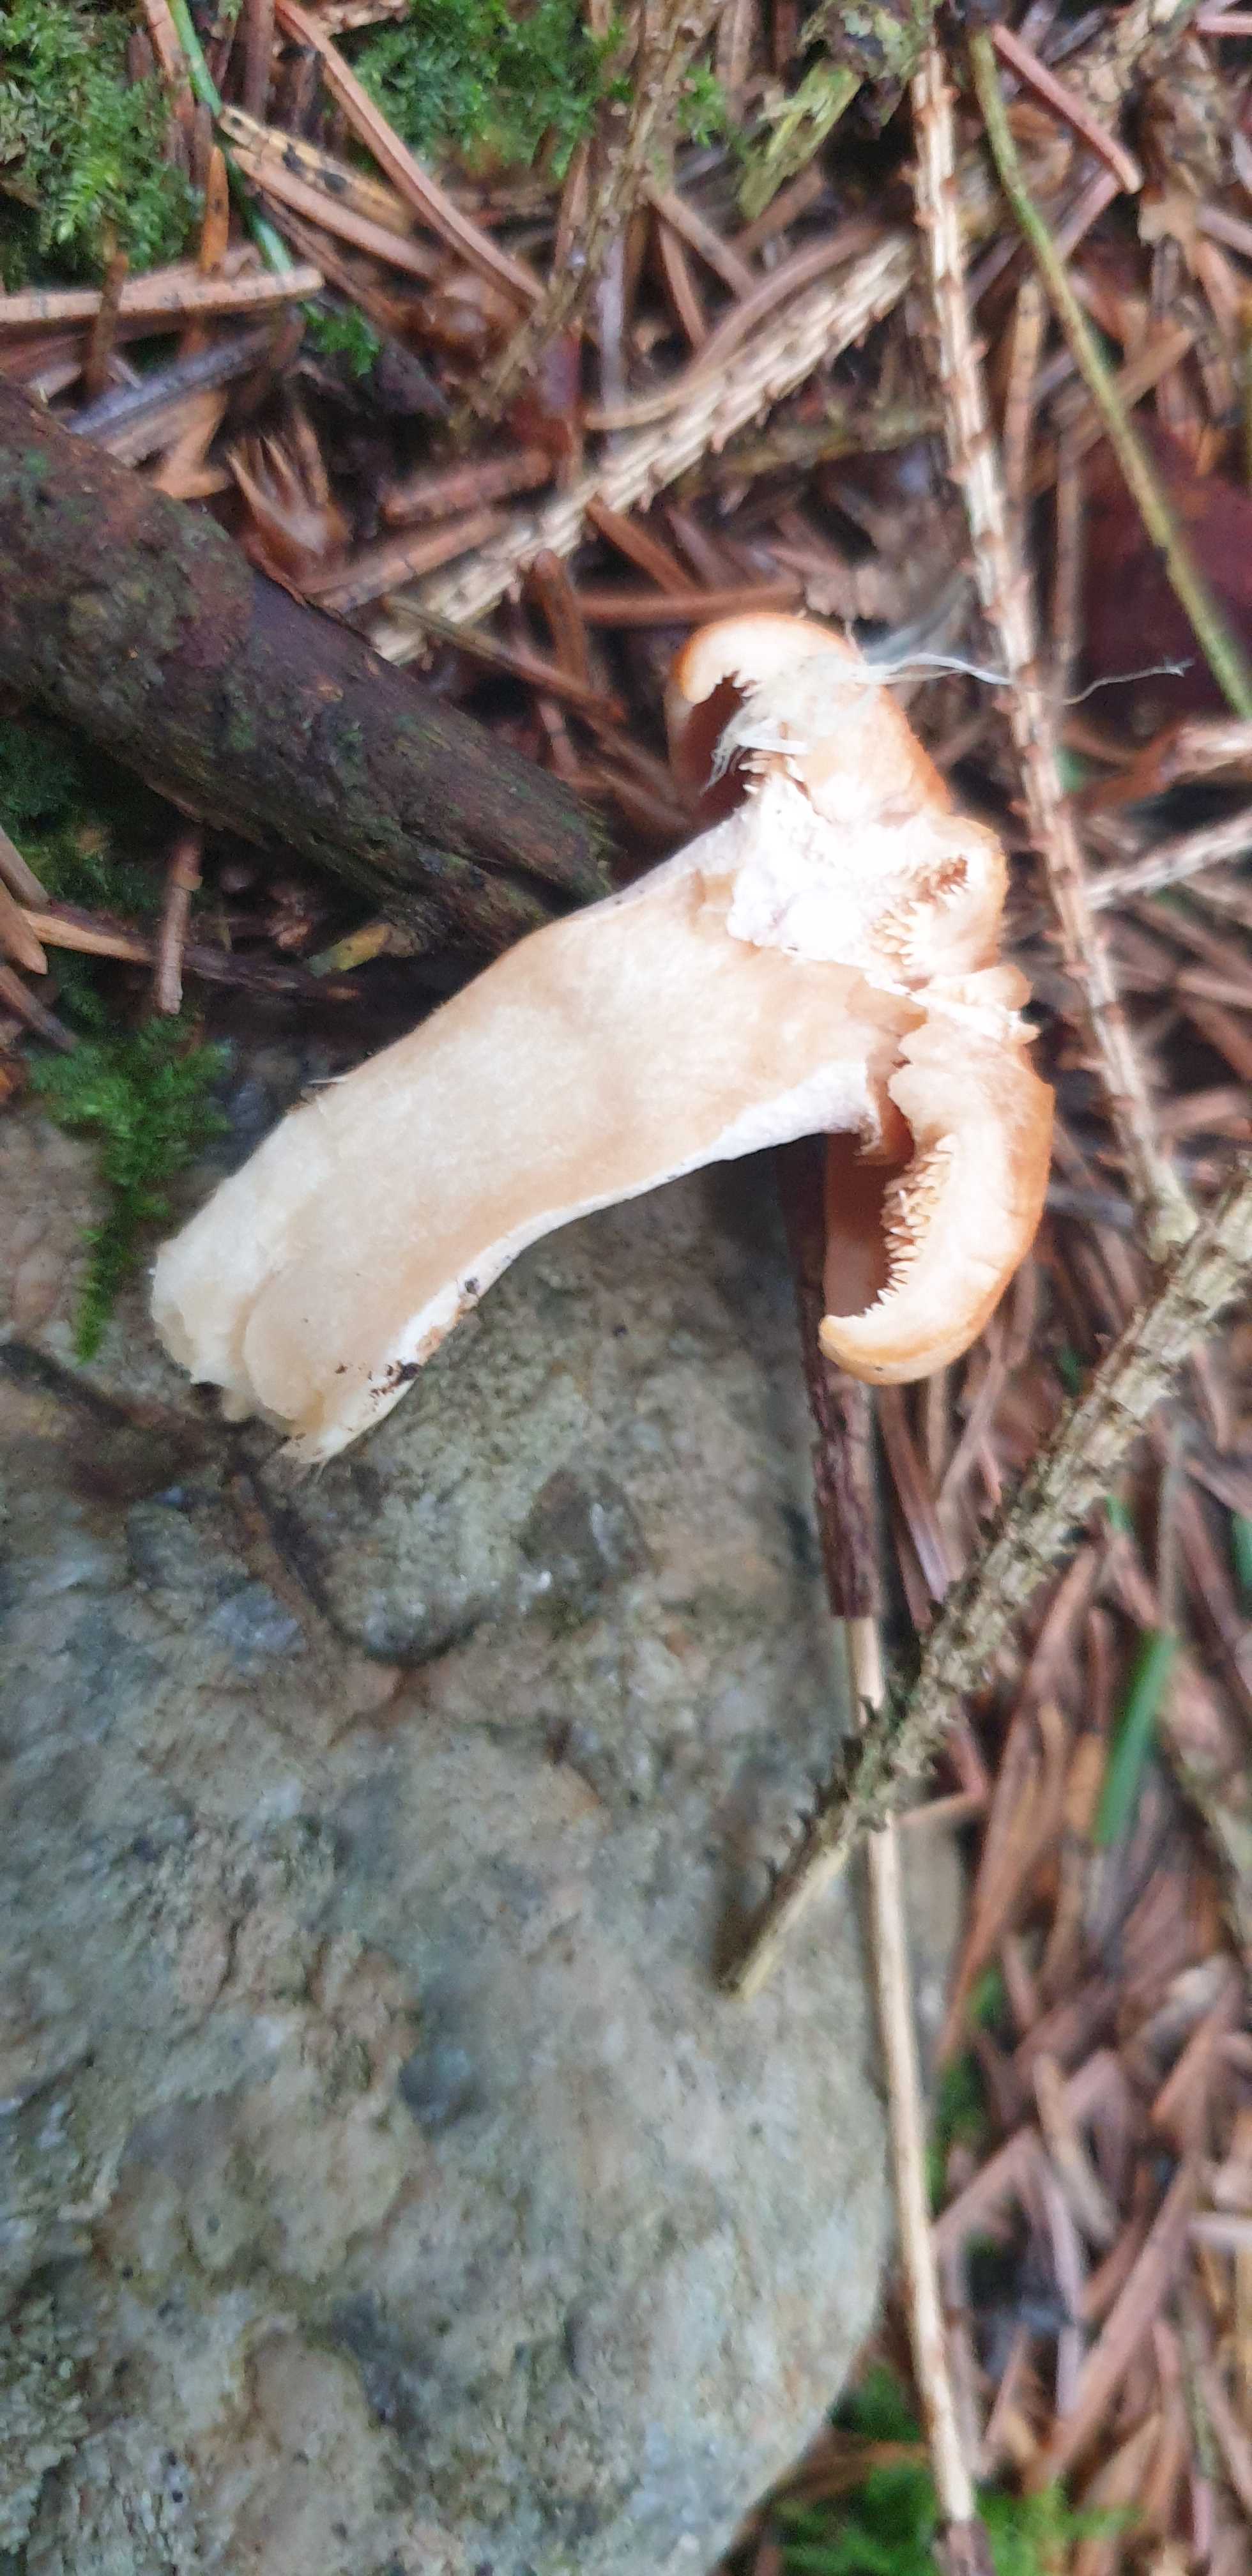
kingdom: Fungi
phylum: Basidiomycota
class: Agaricomycetes
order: Cantharellales
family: Hydnaceae
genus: Hydnum
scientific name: Hydnum rufescens
